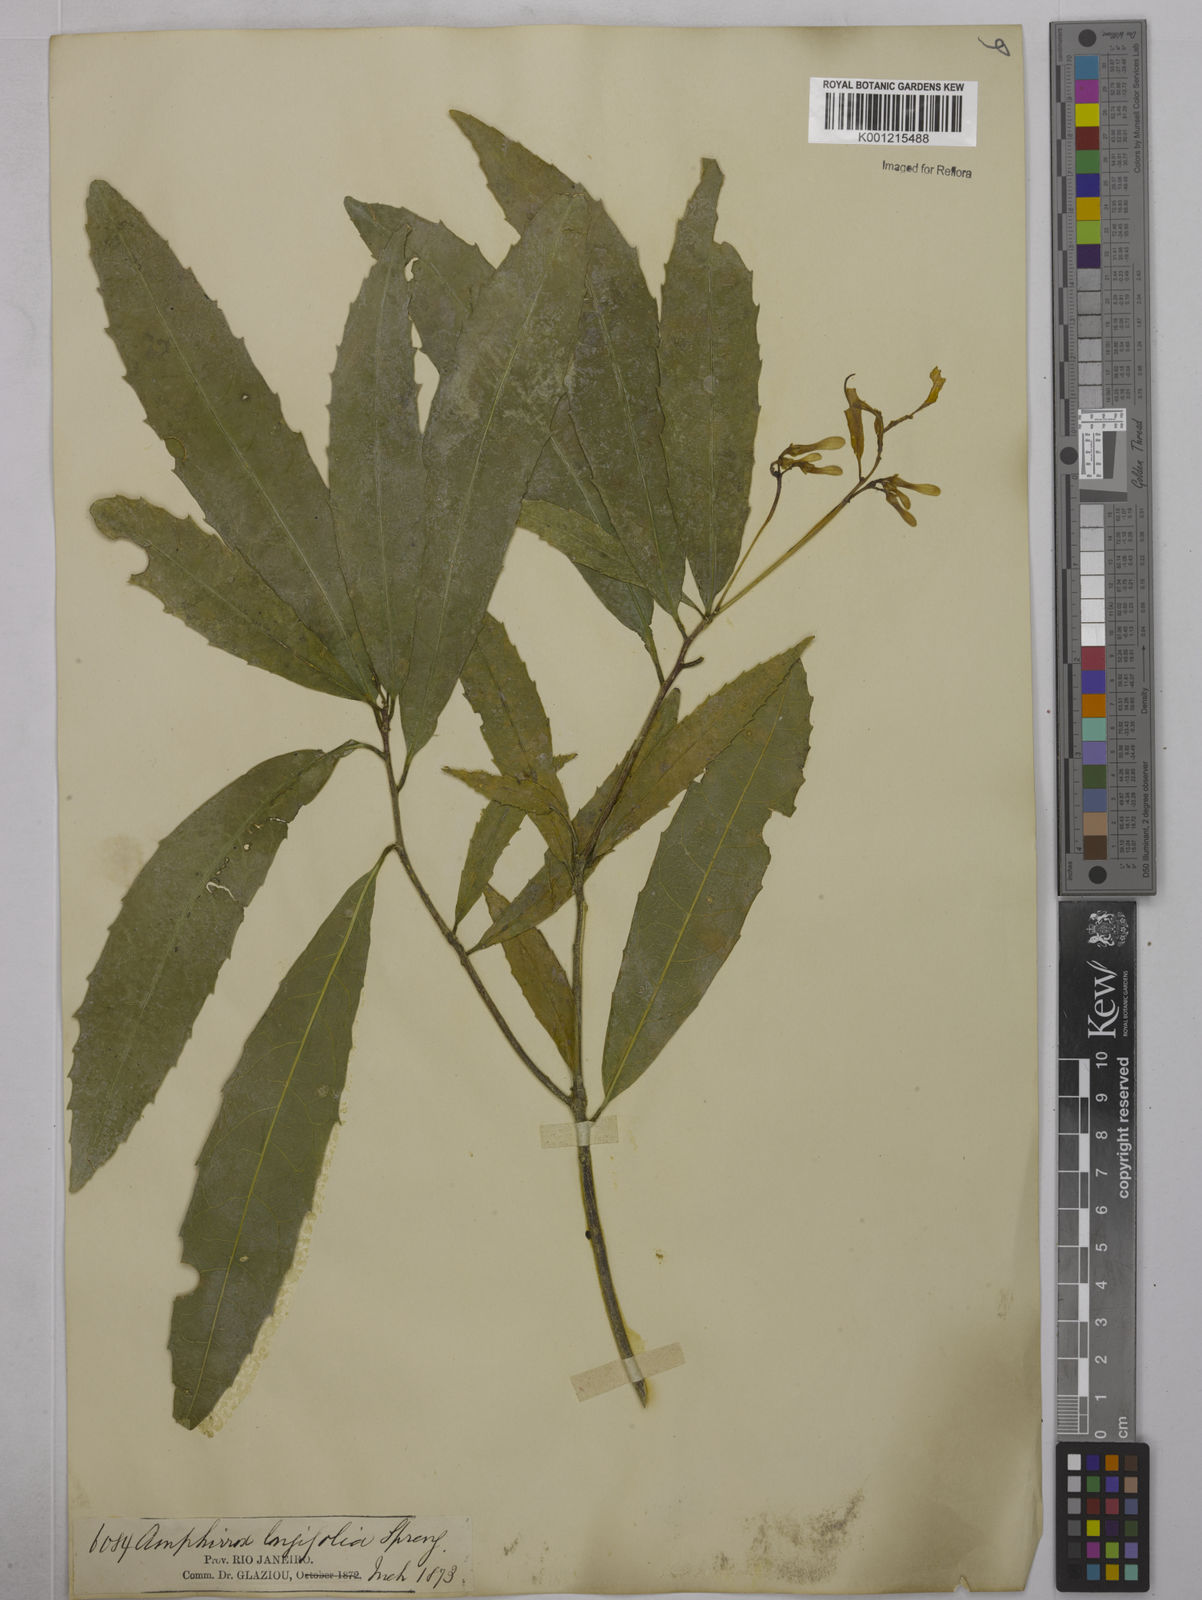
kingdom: Plantae
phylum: Tracheophyta
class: Magnoliopsida
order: Malpighiales
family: Violaceae
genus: Amphirrhox
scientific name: Amphirrhox longifolia
